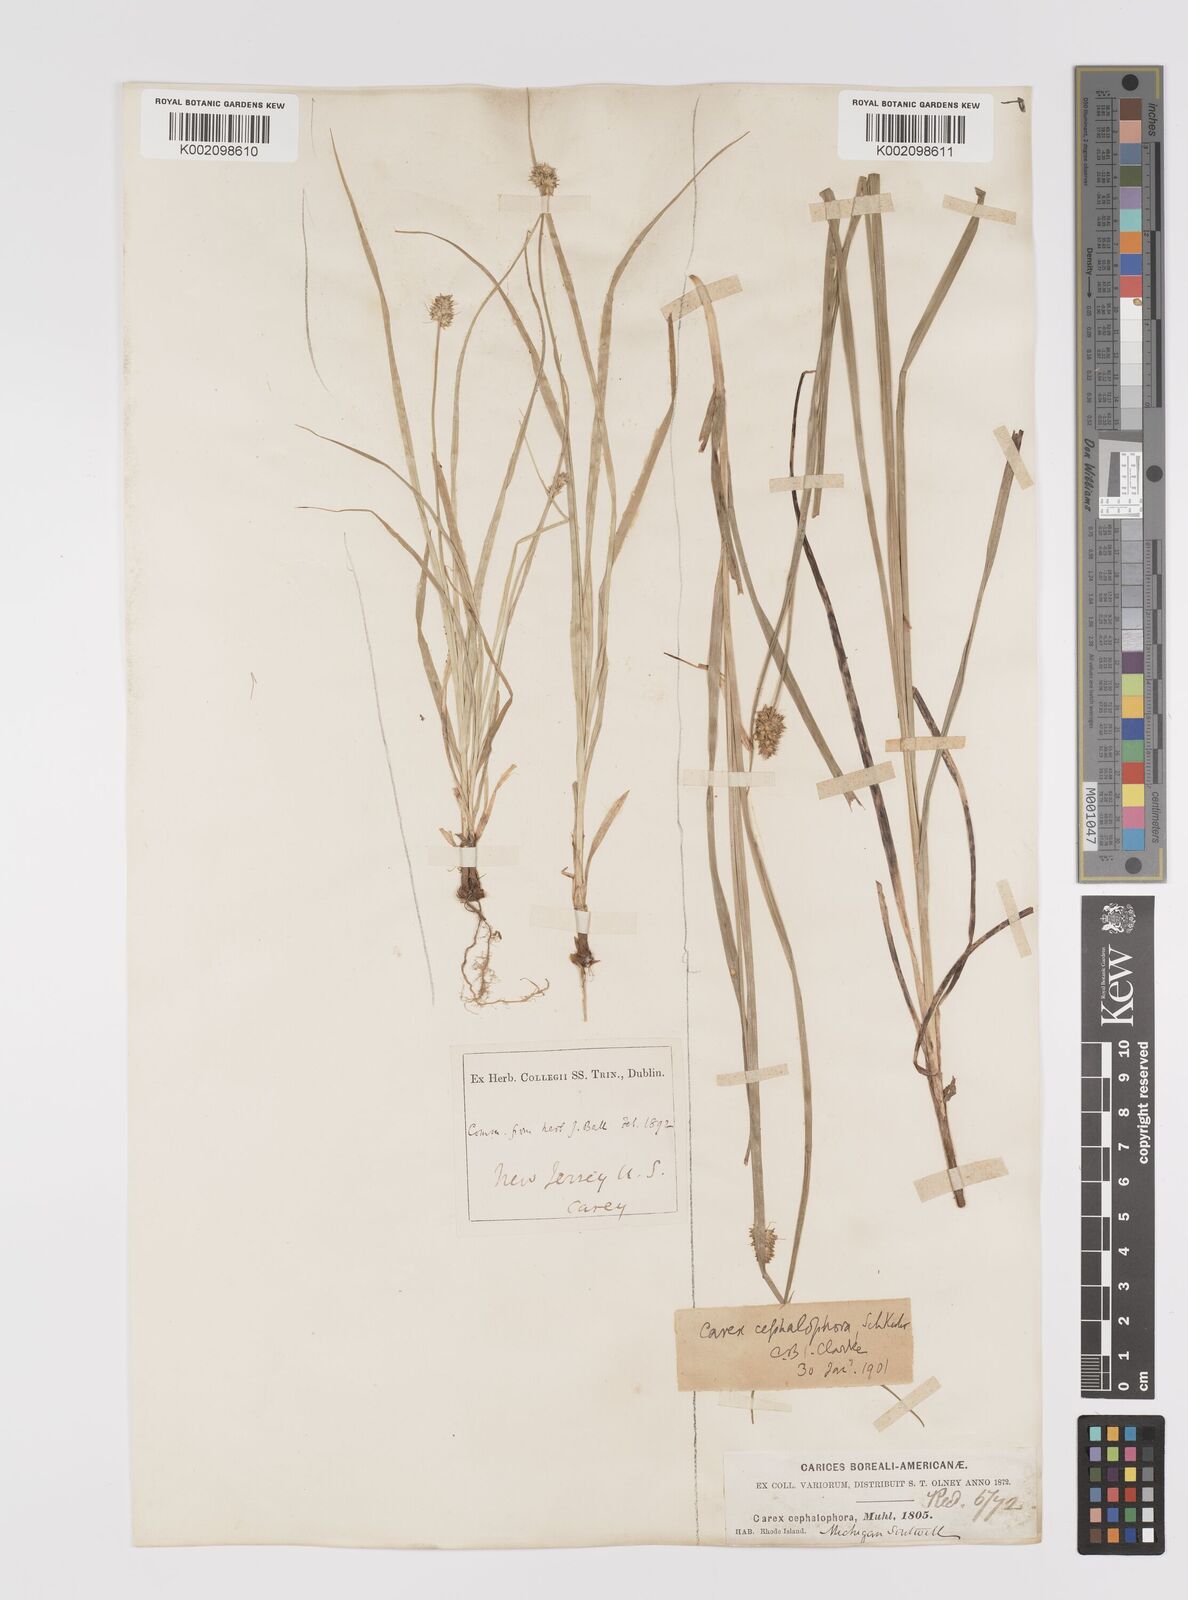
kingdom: Plantae
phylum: Tracheophyta
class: Liliopsida
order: Poales
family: Cyperaceae
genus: Carex
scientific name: Carex cephalophora
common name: Oval-headed sedge
